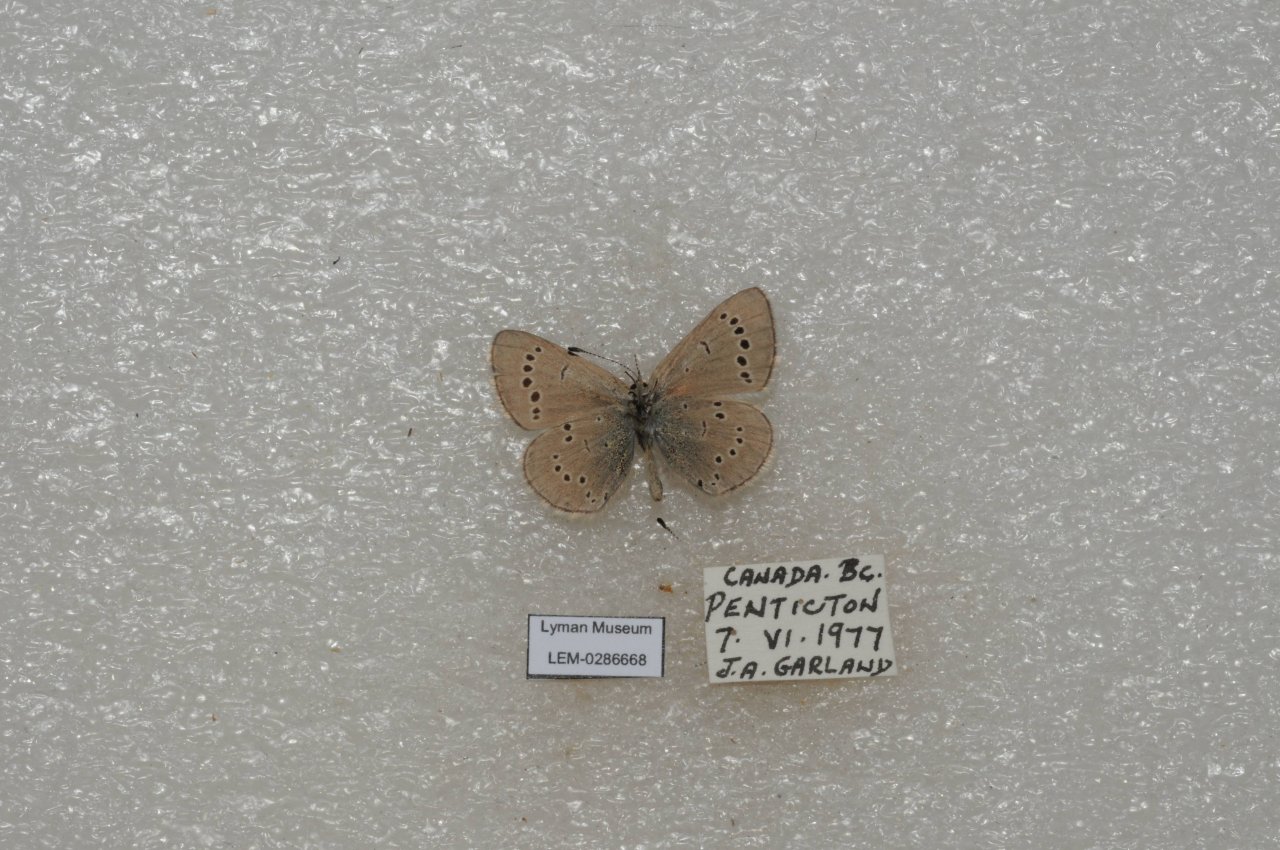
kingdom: Animalia
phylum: Arthropoda
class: Insecta
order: Lepidoptera
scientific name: Lepidoptera
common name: Butterflies
